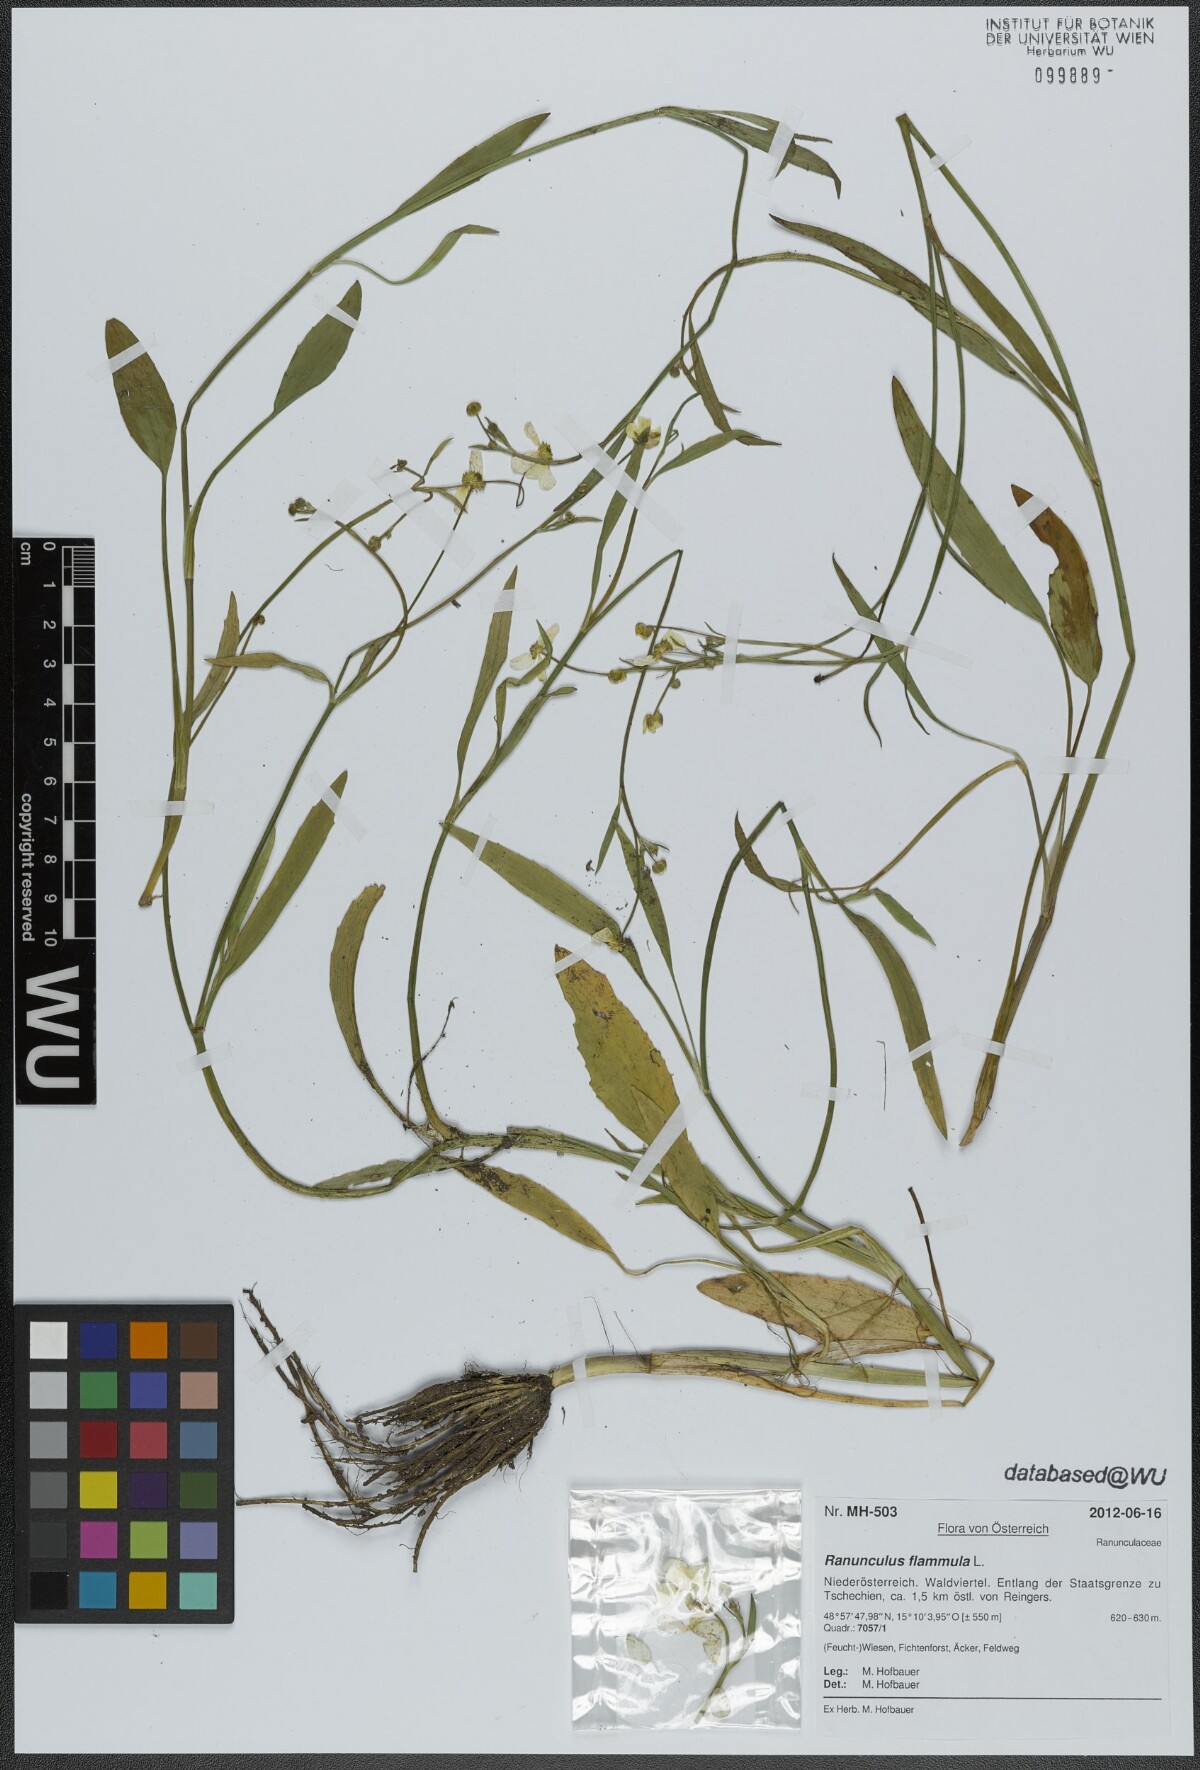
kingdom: Plantae
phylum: Tracheophyta
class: Magnoliopsida
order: Ranunculales
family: Ranunculaceae
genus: Ranunculus
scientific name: Ranunculus flammula
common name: Lesser spearwort
